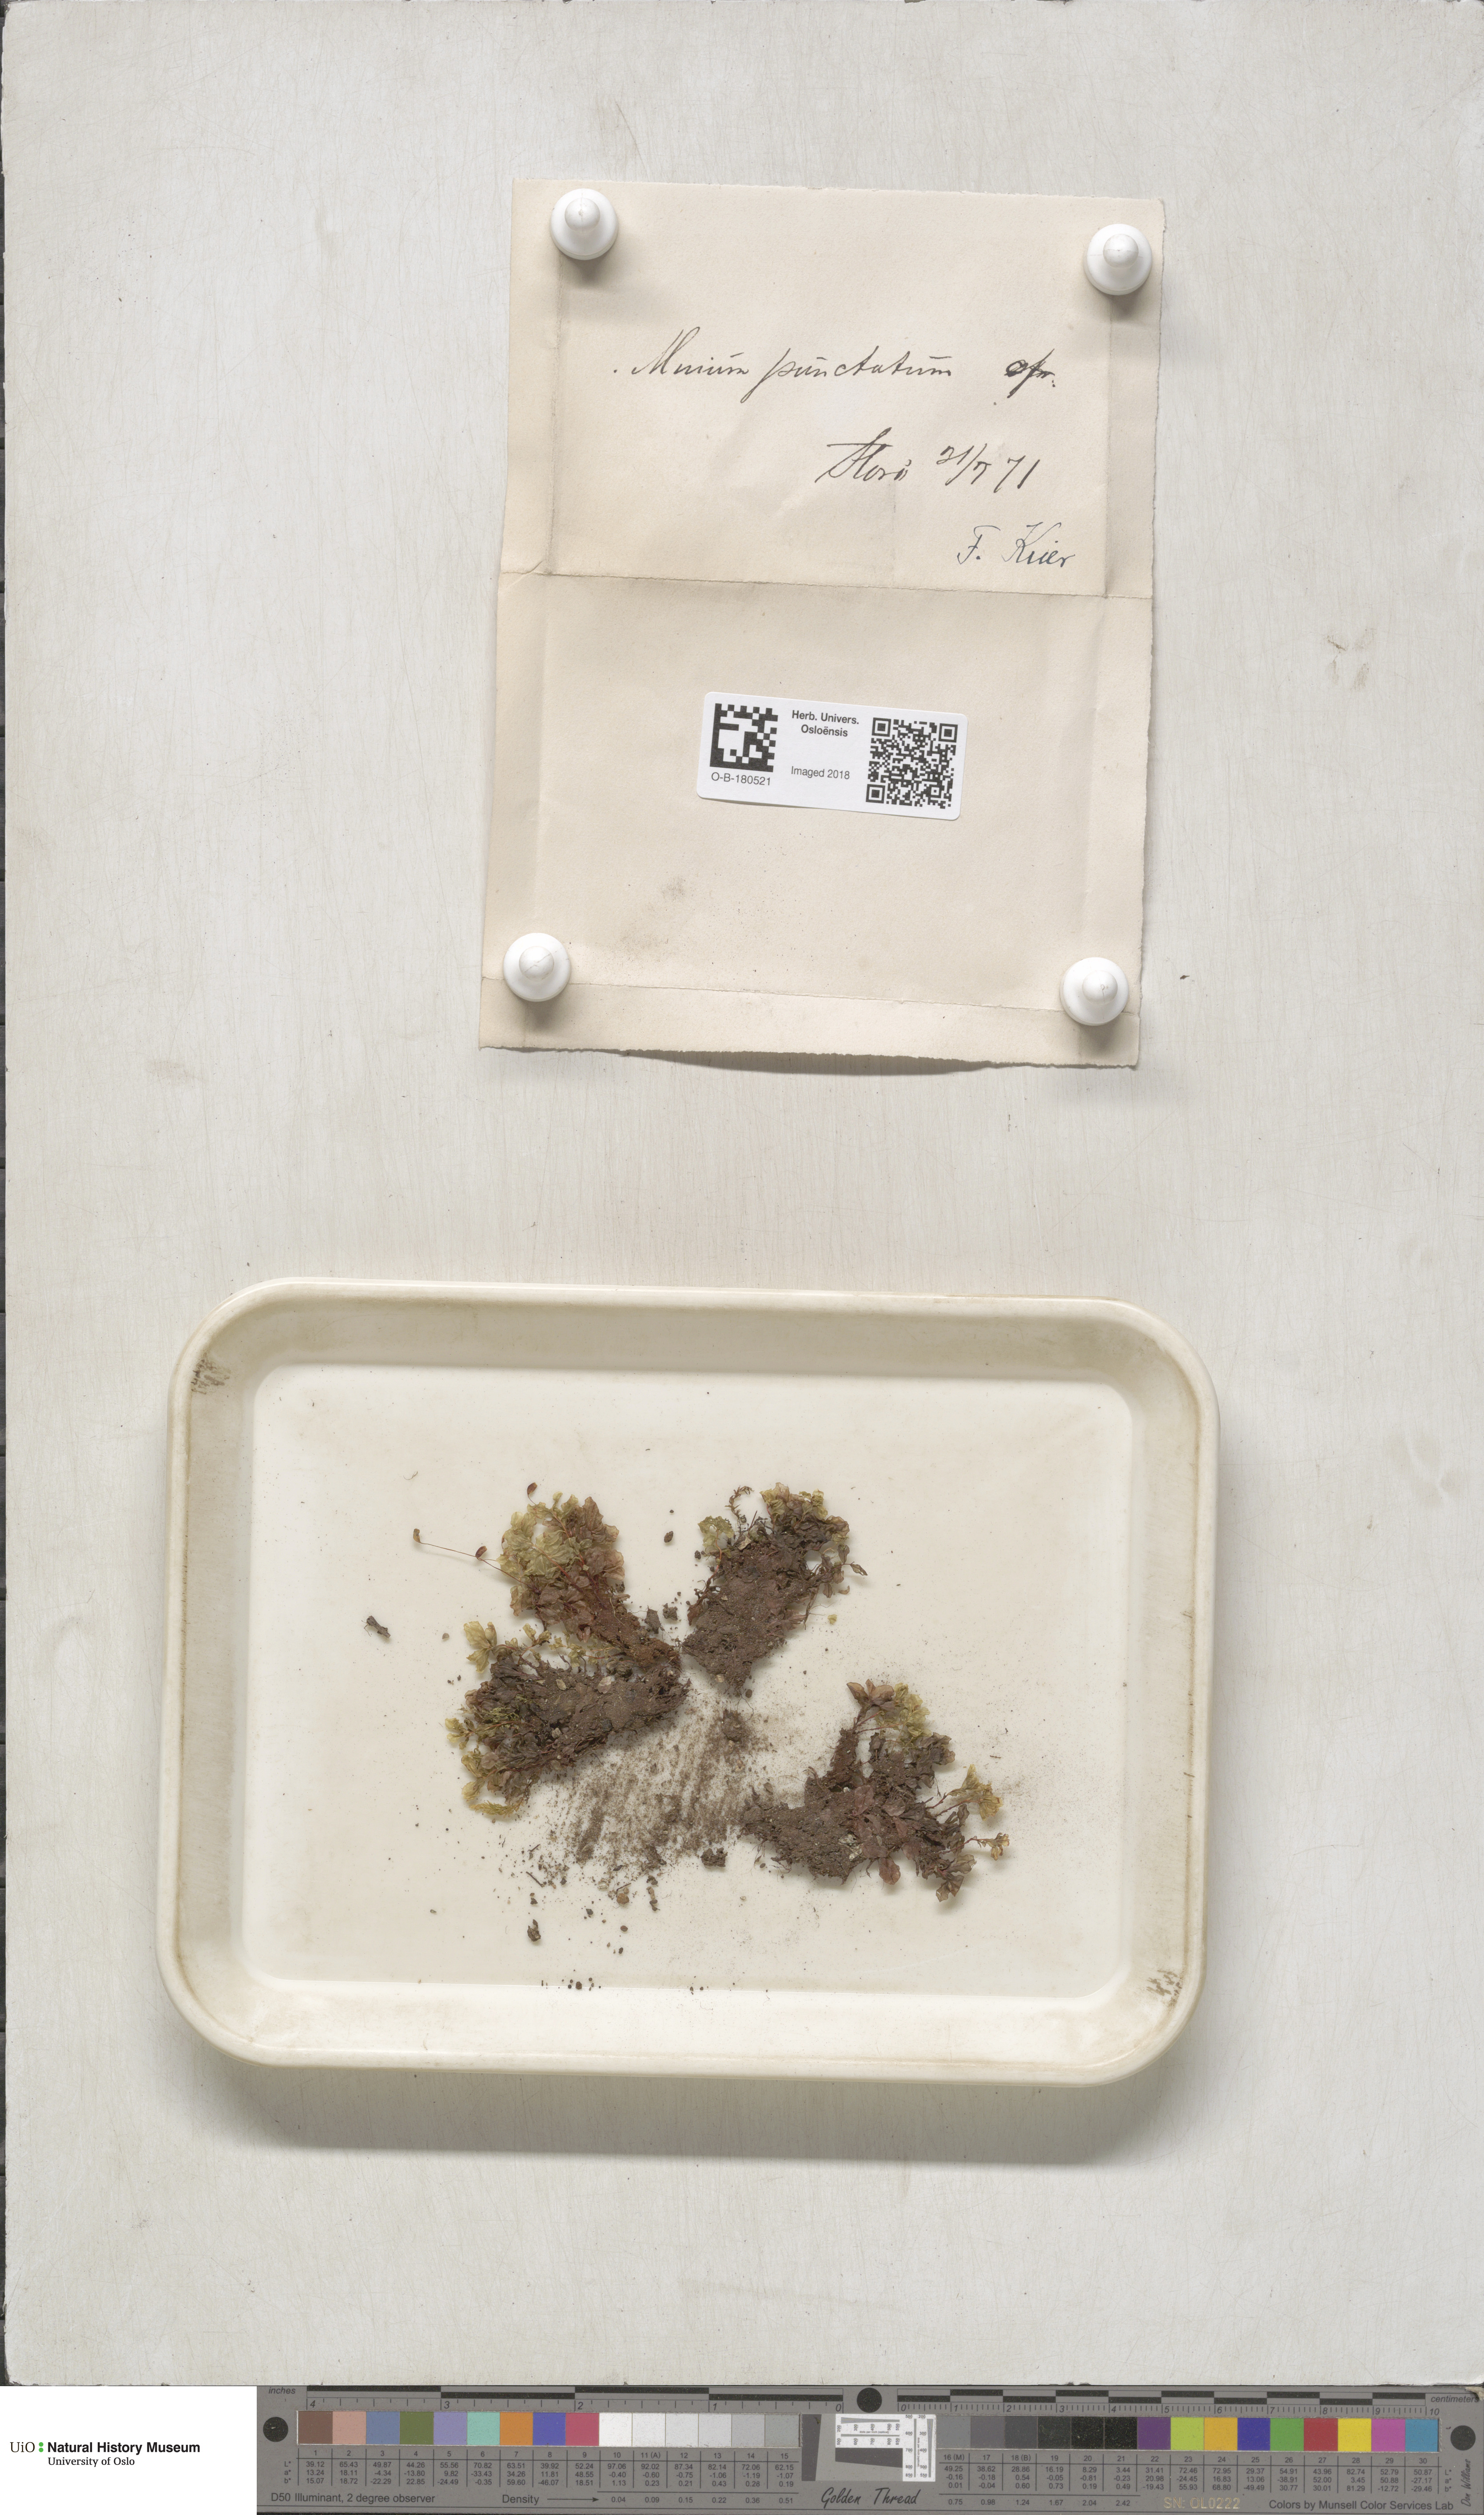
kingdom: Plantae
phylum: Bryophyta
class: Bryopsida
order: Bryales
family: Mniaceae
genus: Rhizomnium
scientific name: Rhizomnium punctatum
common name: Dotted leafy moss
